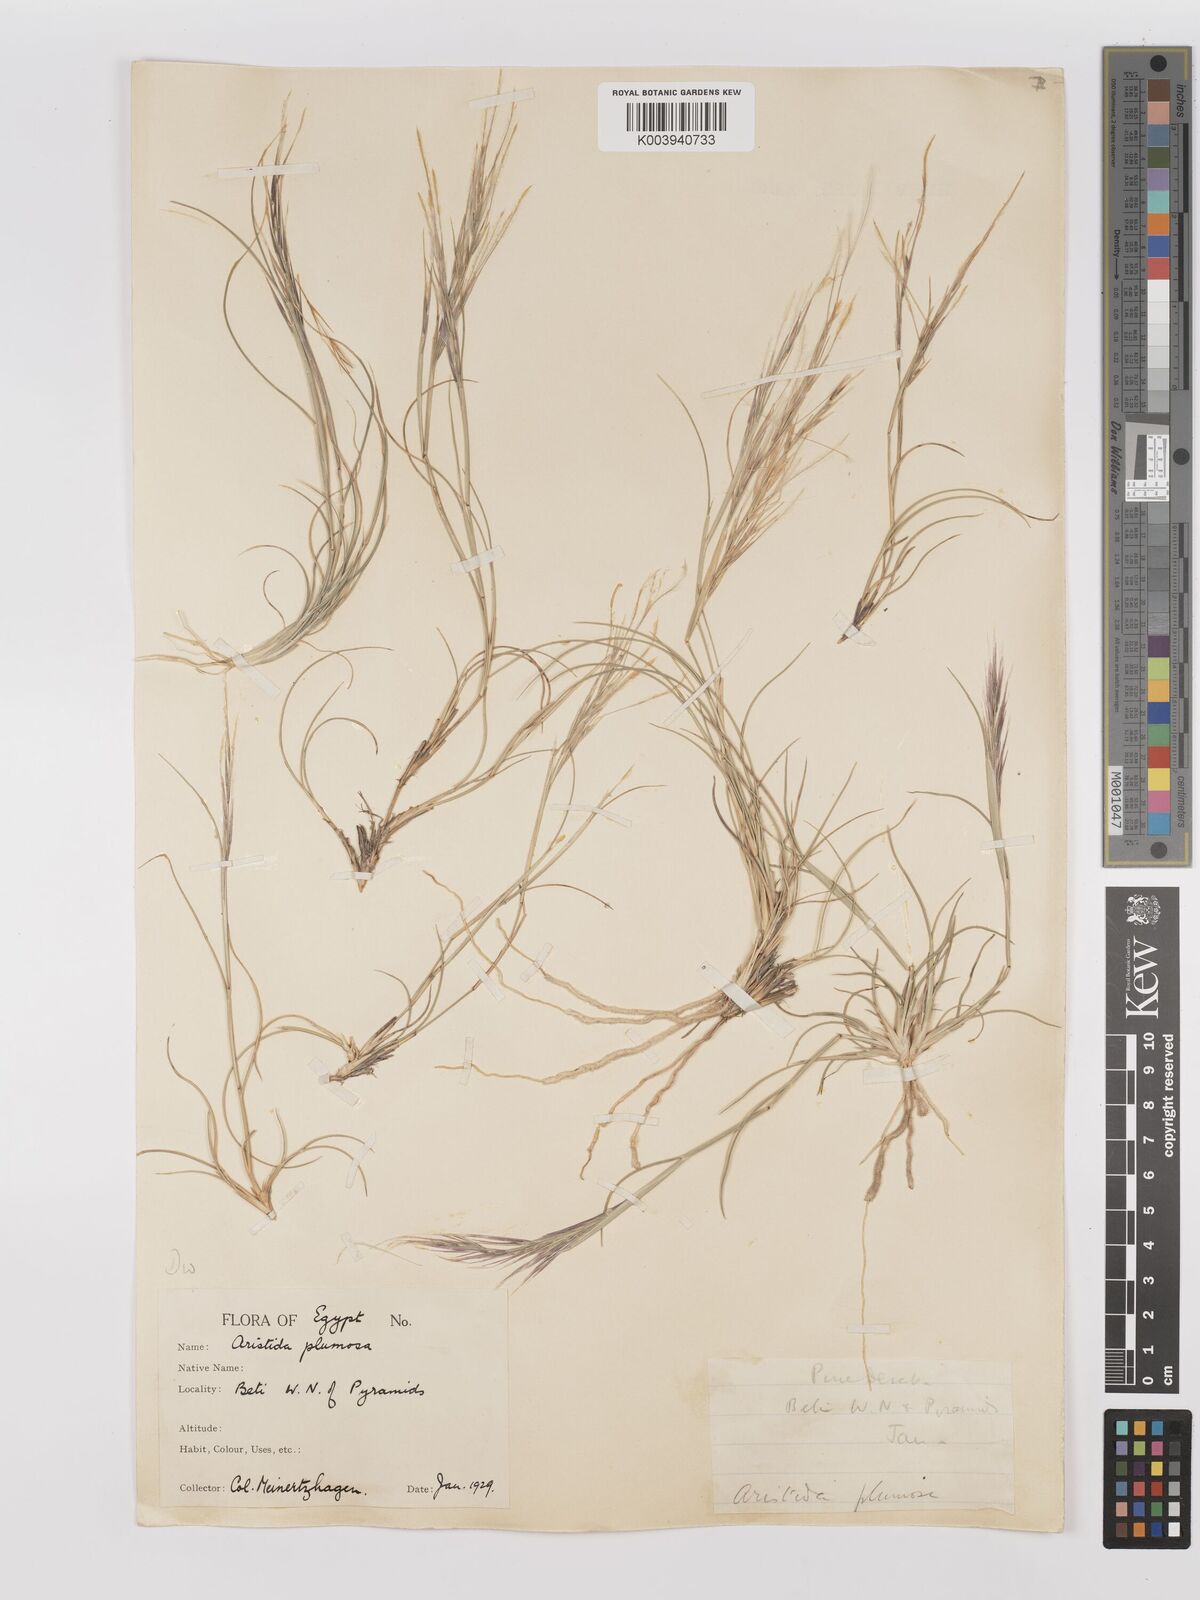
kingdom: Plantae
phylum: Tracheophyta
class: Liliopsida
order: Poales
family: Poaceae
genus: Stipagrostis
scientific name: Stipagrostis plumosa
